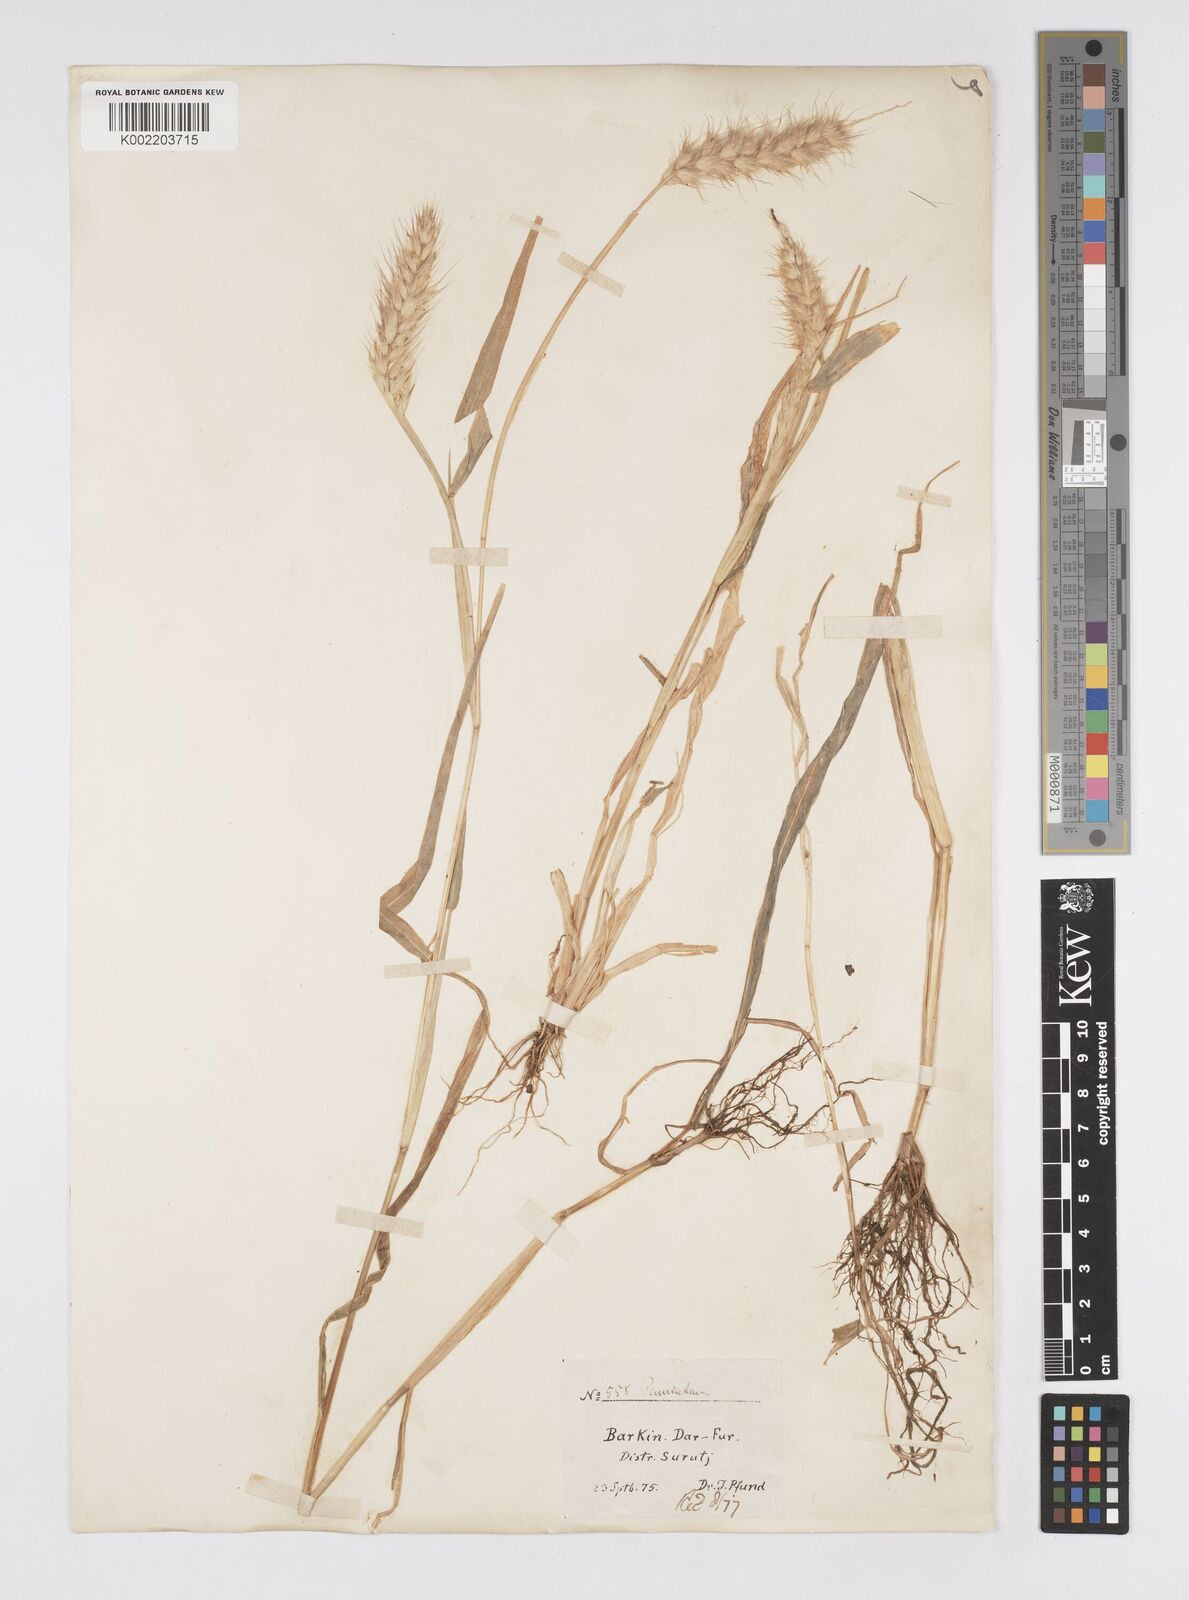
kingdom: Plantae
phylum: Tracheophyta
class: Liliopsida
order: Poales
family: Poaceae
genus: Cenchrus
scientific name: Cenchrus pedicellatus
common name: Hairy fountain grass
